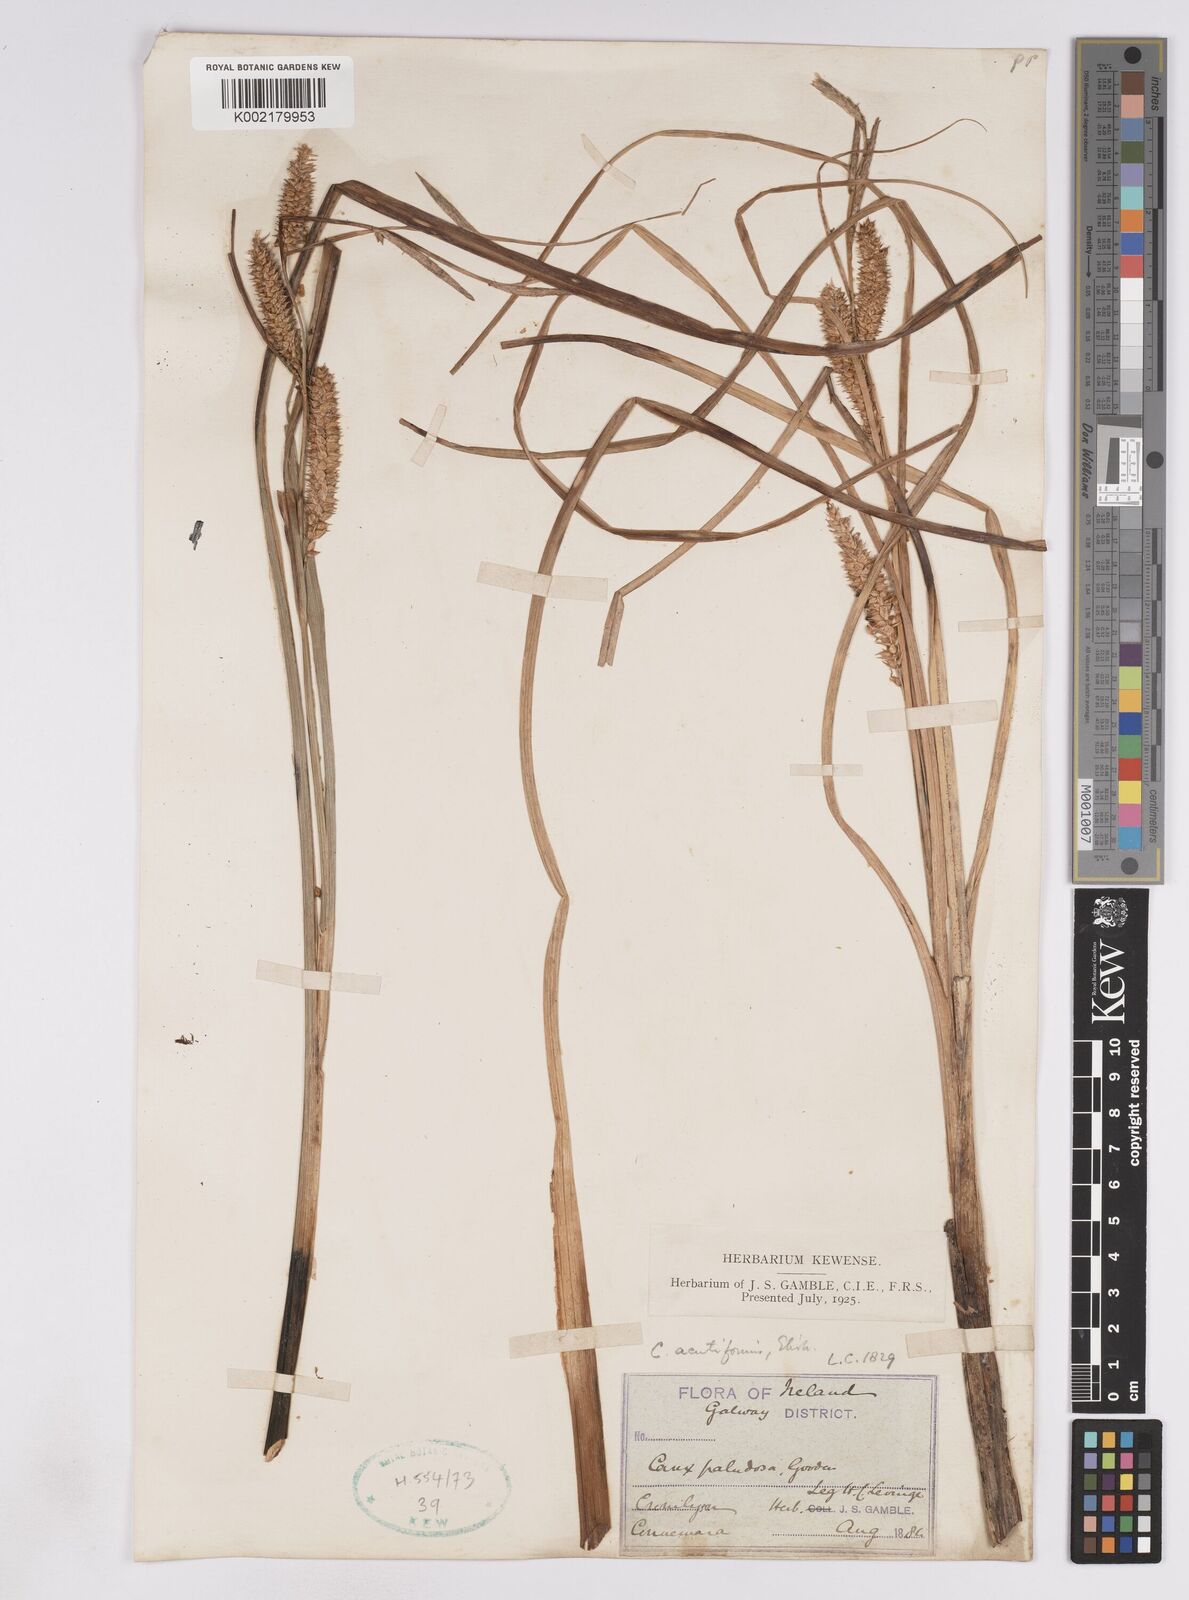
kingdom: Plantae
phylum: Tracheophyta
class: Liliopsida
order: Poales
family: Cyperaceae
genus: Carex
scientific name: Carex utriculata
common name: Beaked sedge
